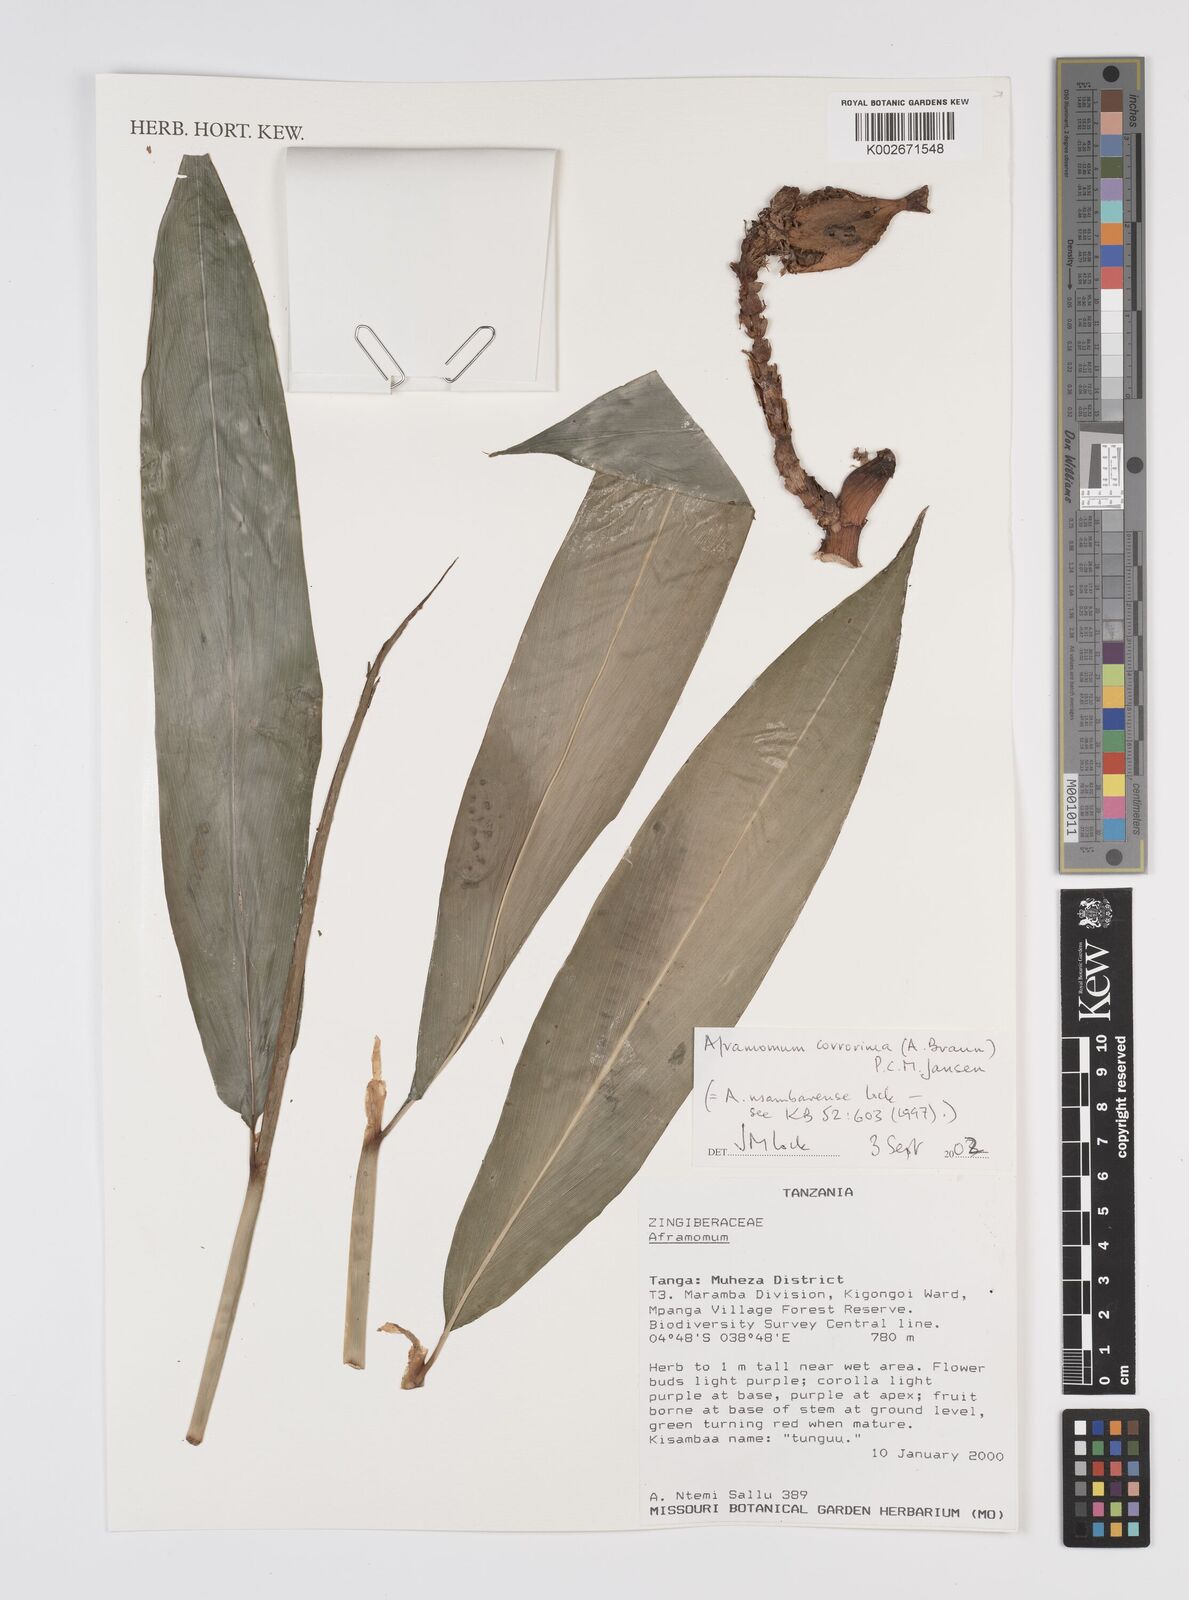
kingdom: Plantae
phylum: Tracheophyta
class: Liliopsida
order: Zingiberales
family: Zingiberaceae
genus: Aframomum
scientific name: Aframomum corrorima
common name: Ethiopian cardamom
